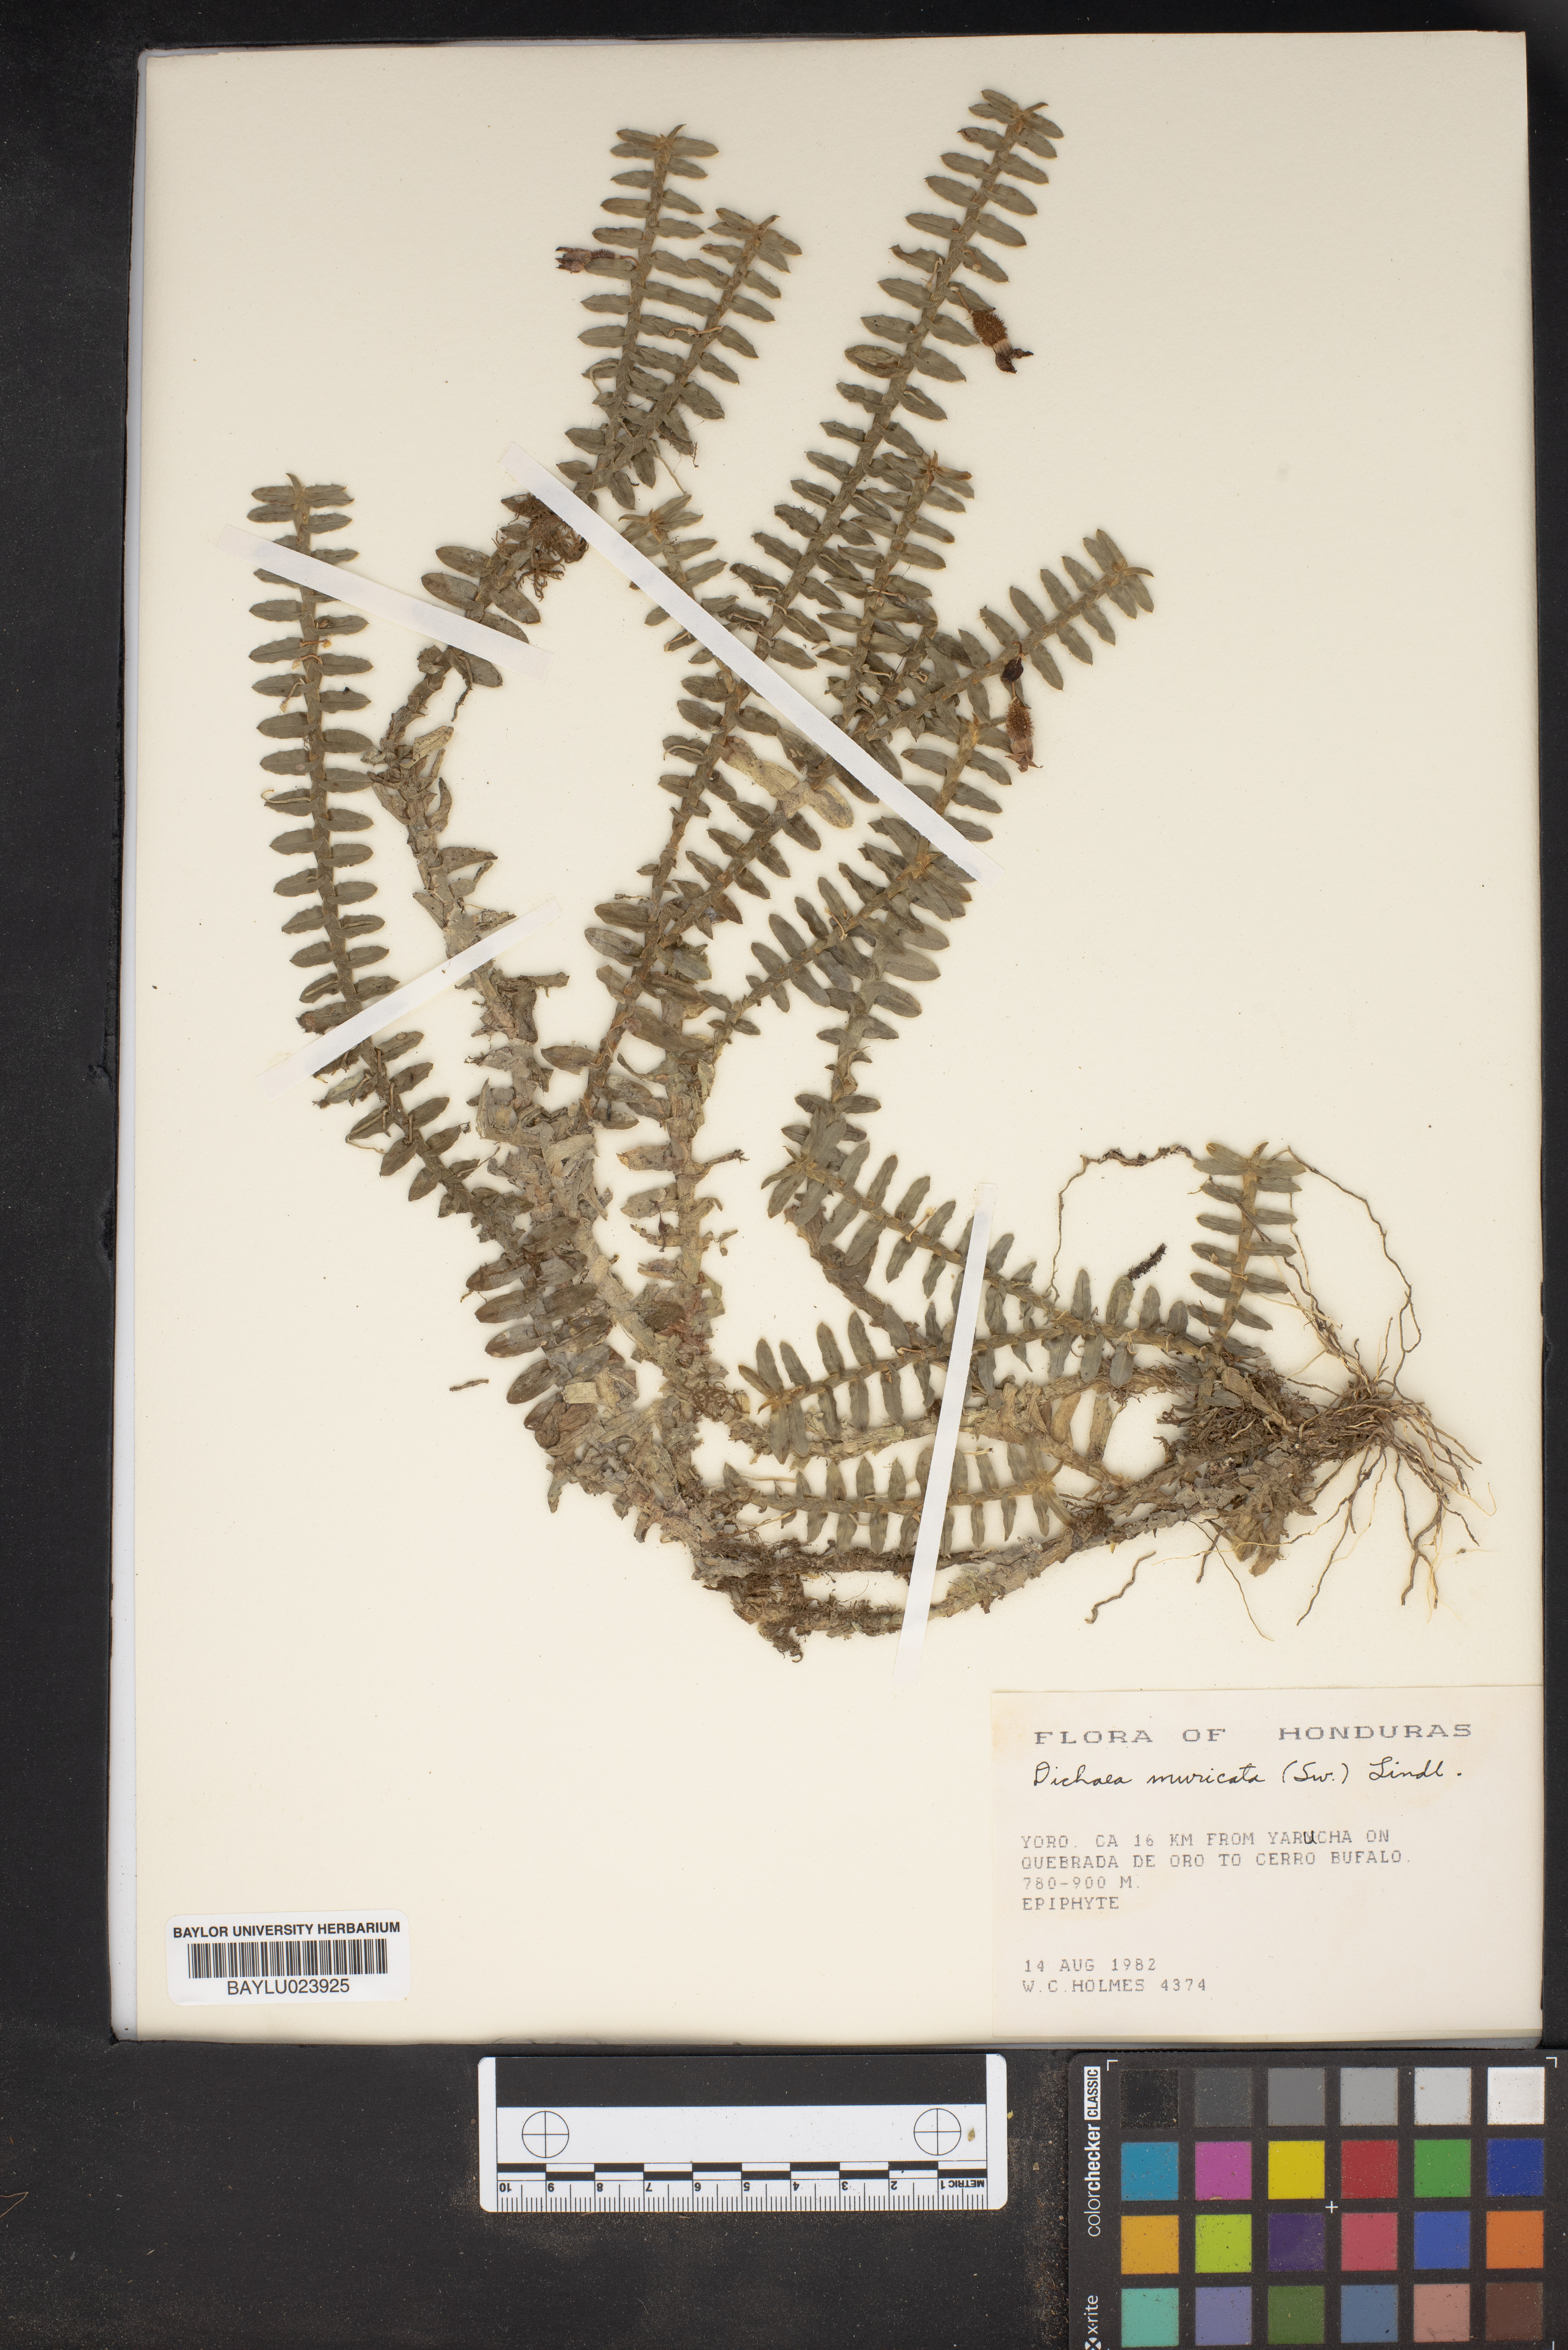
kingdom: Plantae
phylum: Tracheophyta
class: Liliopsida
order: Asparagales
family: Orchidaceae
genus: Dichaea
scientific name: Dichaea morrisii
